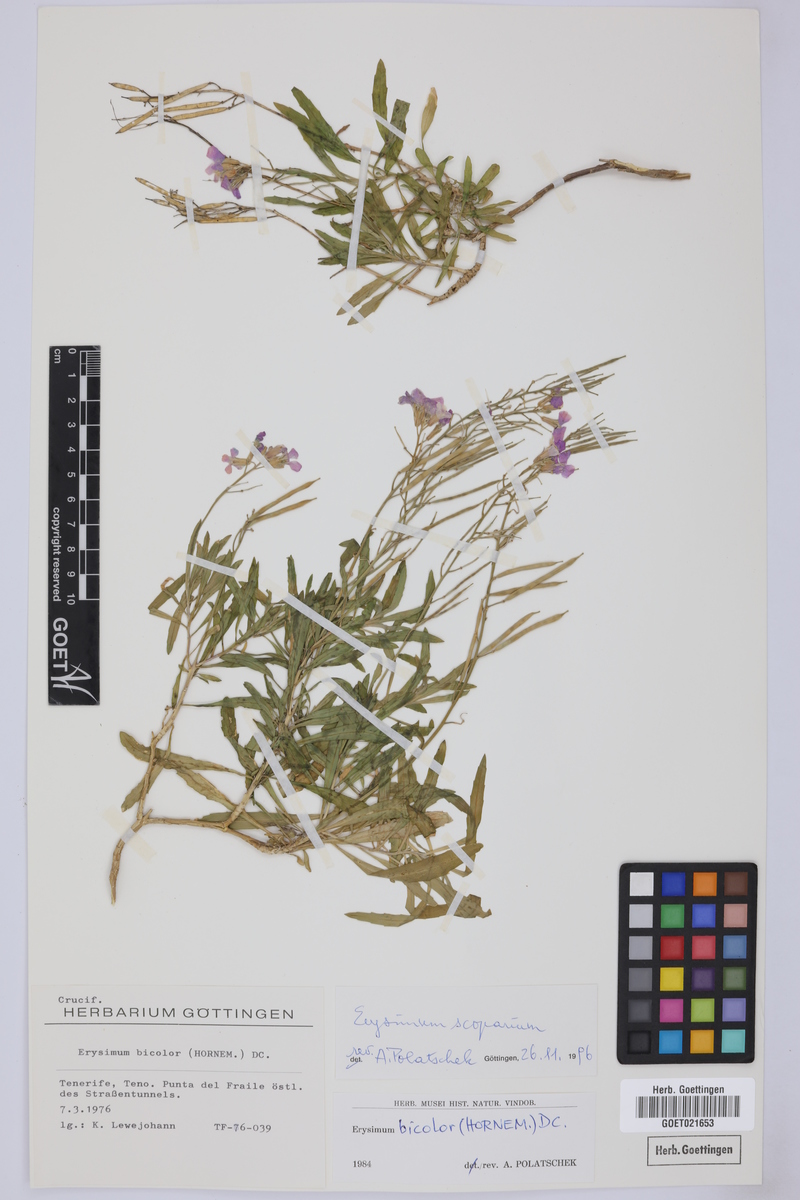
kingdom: Plantae
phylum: Tracheophyta
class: Magnoliopsida
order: Brassicales
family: Brassicaceae
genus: Erysimum
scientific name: Erysimum scoparium
